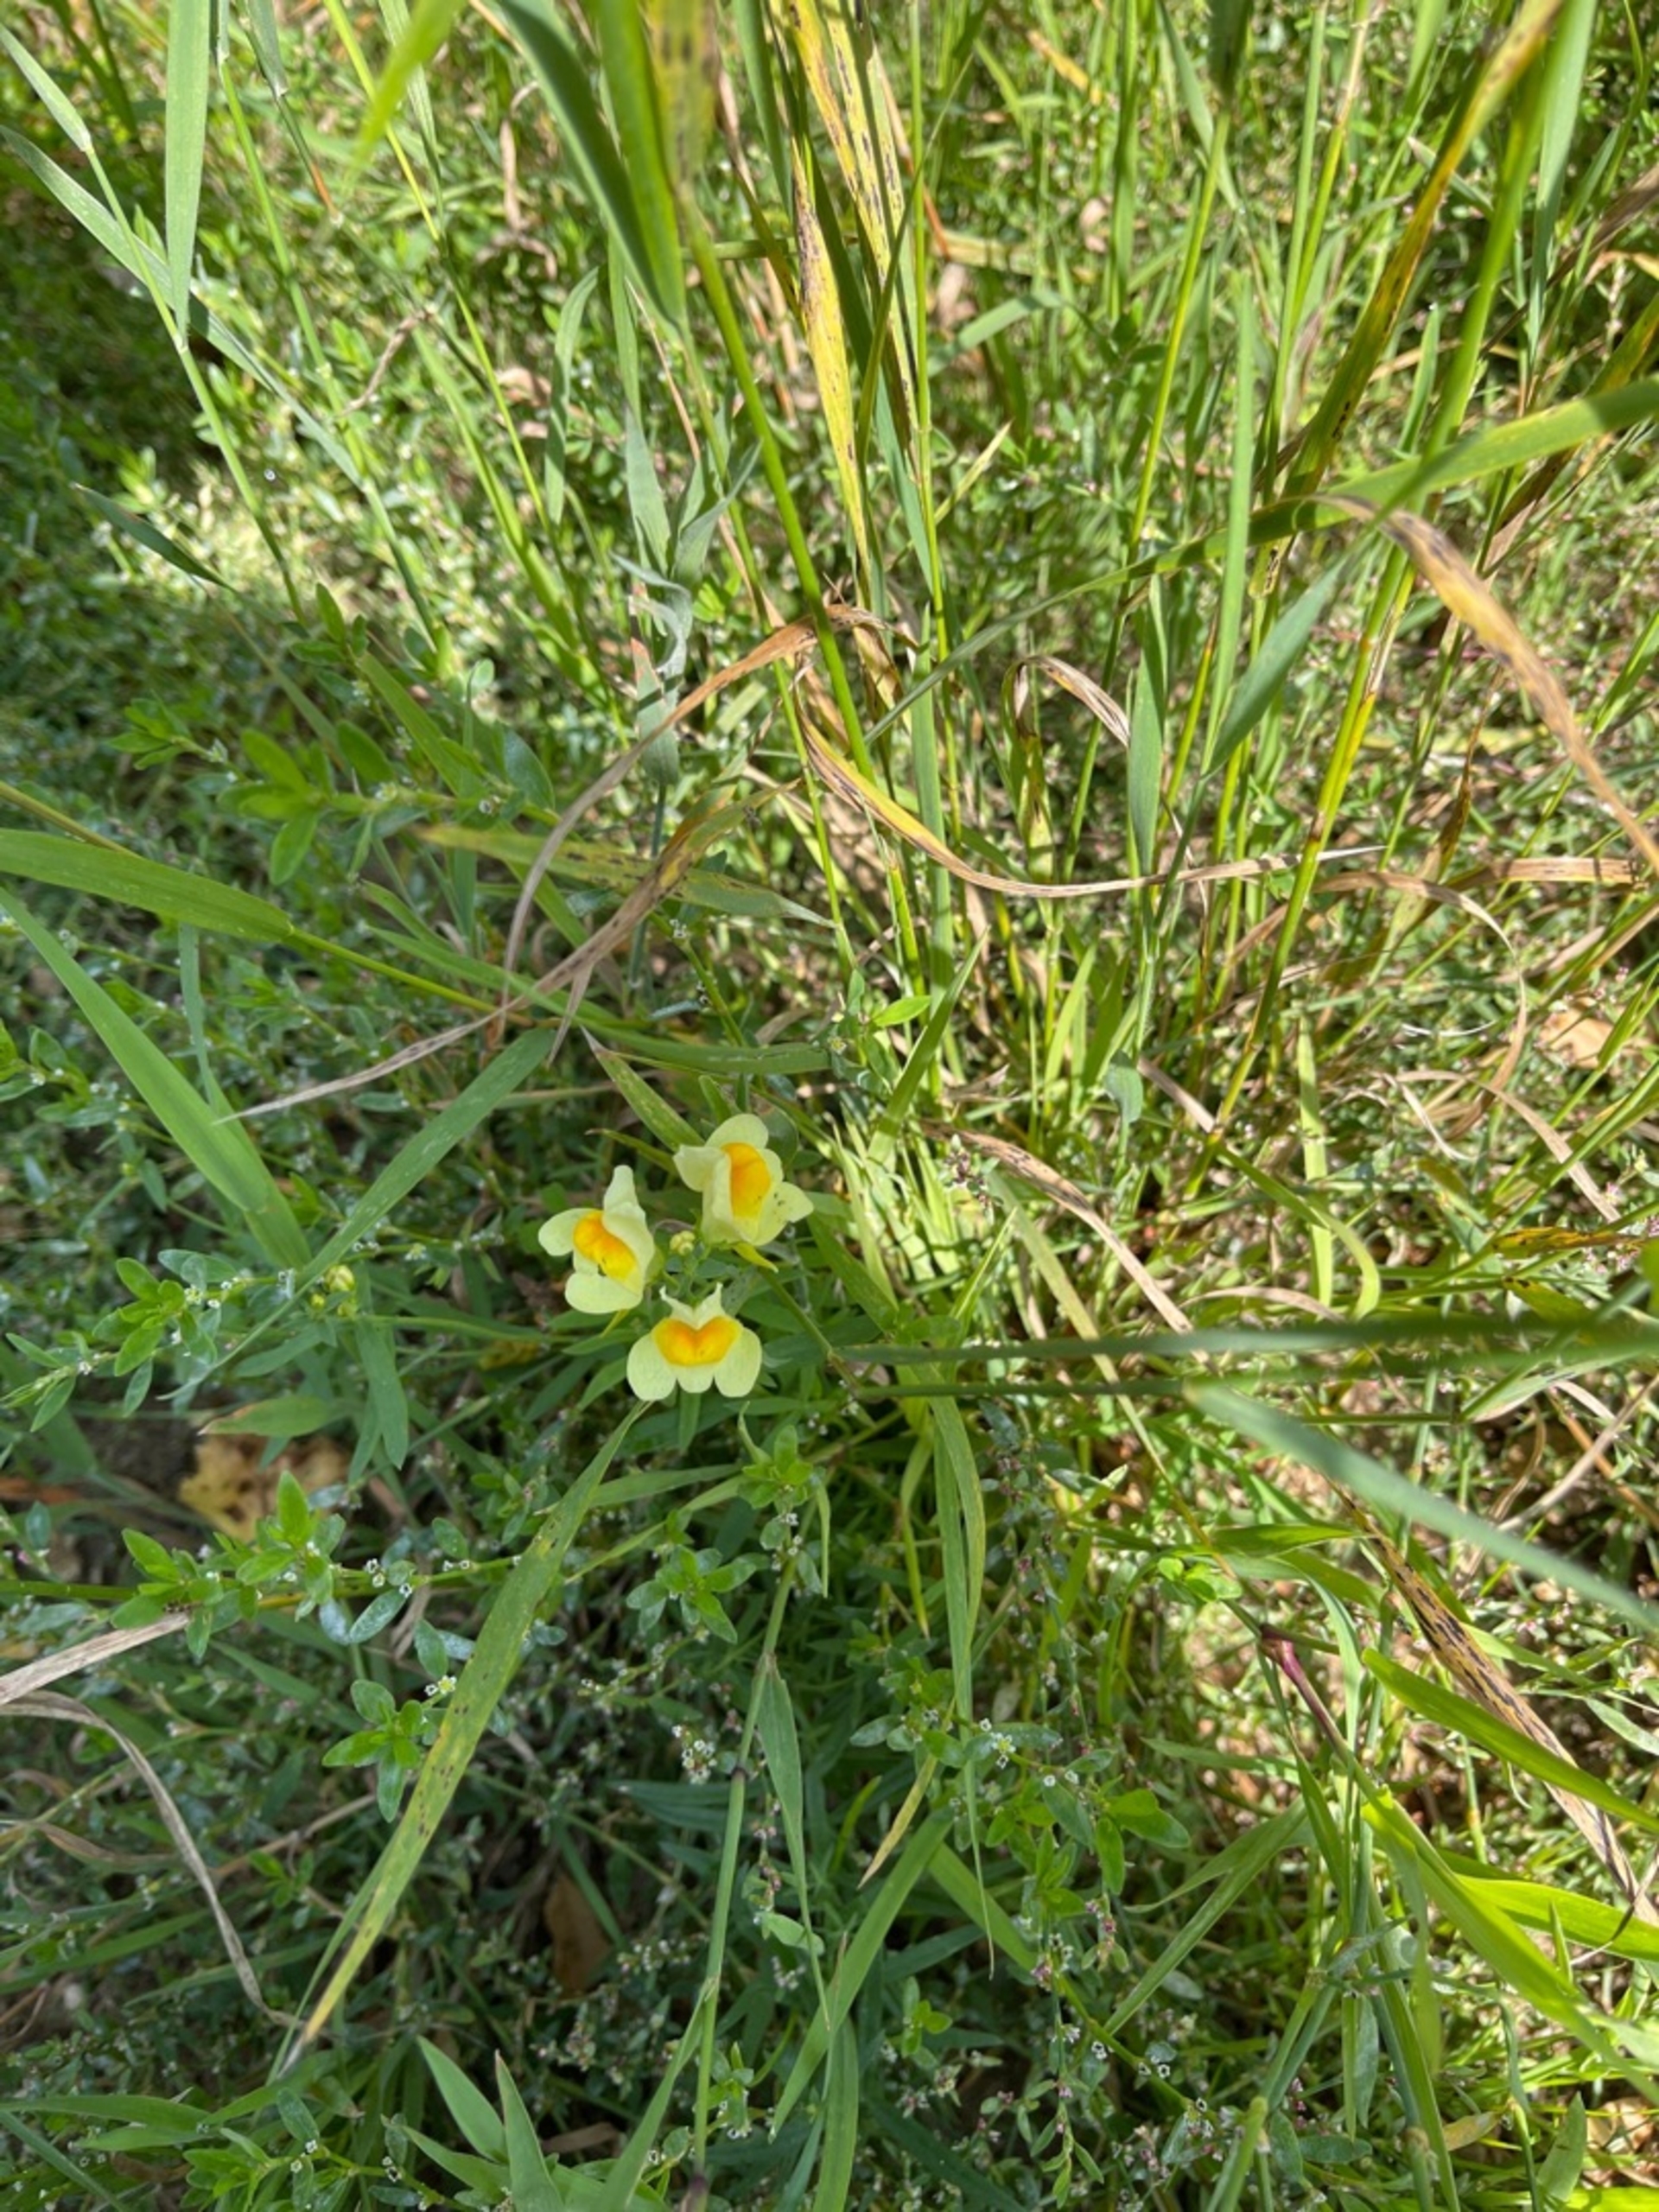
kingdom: Plantae
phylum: Tracheophyta
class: Magnoliopsida
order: Lamiales
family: Plantaginaceae
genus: Linaria
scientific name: Linaria vulgaris
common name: Almindelig torskemund
